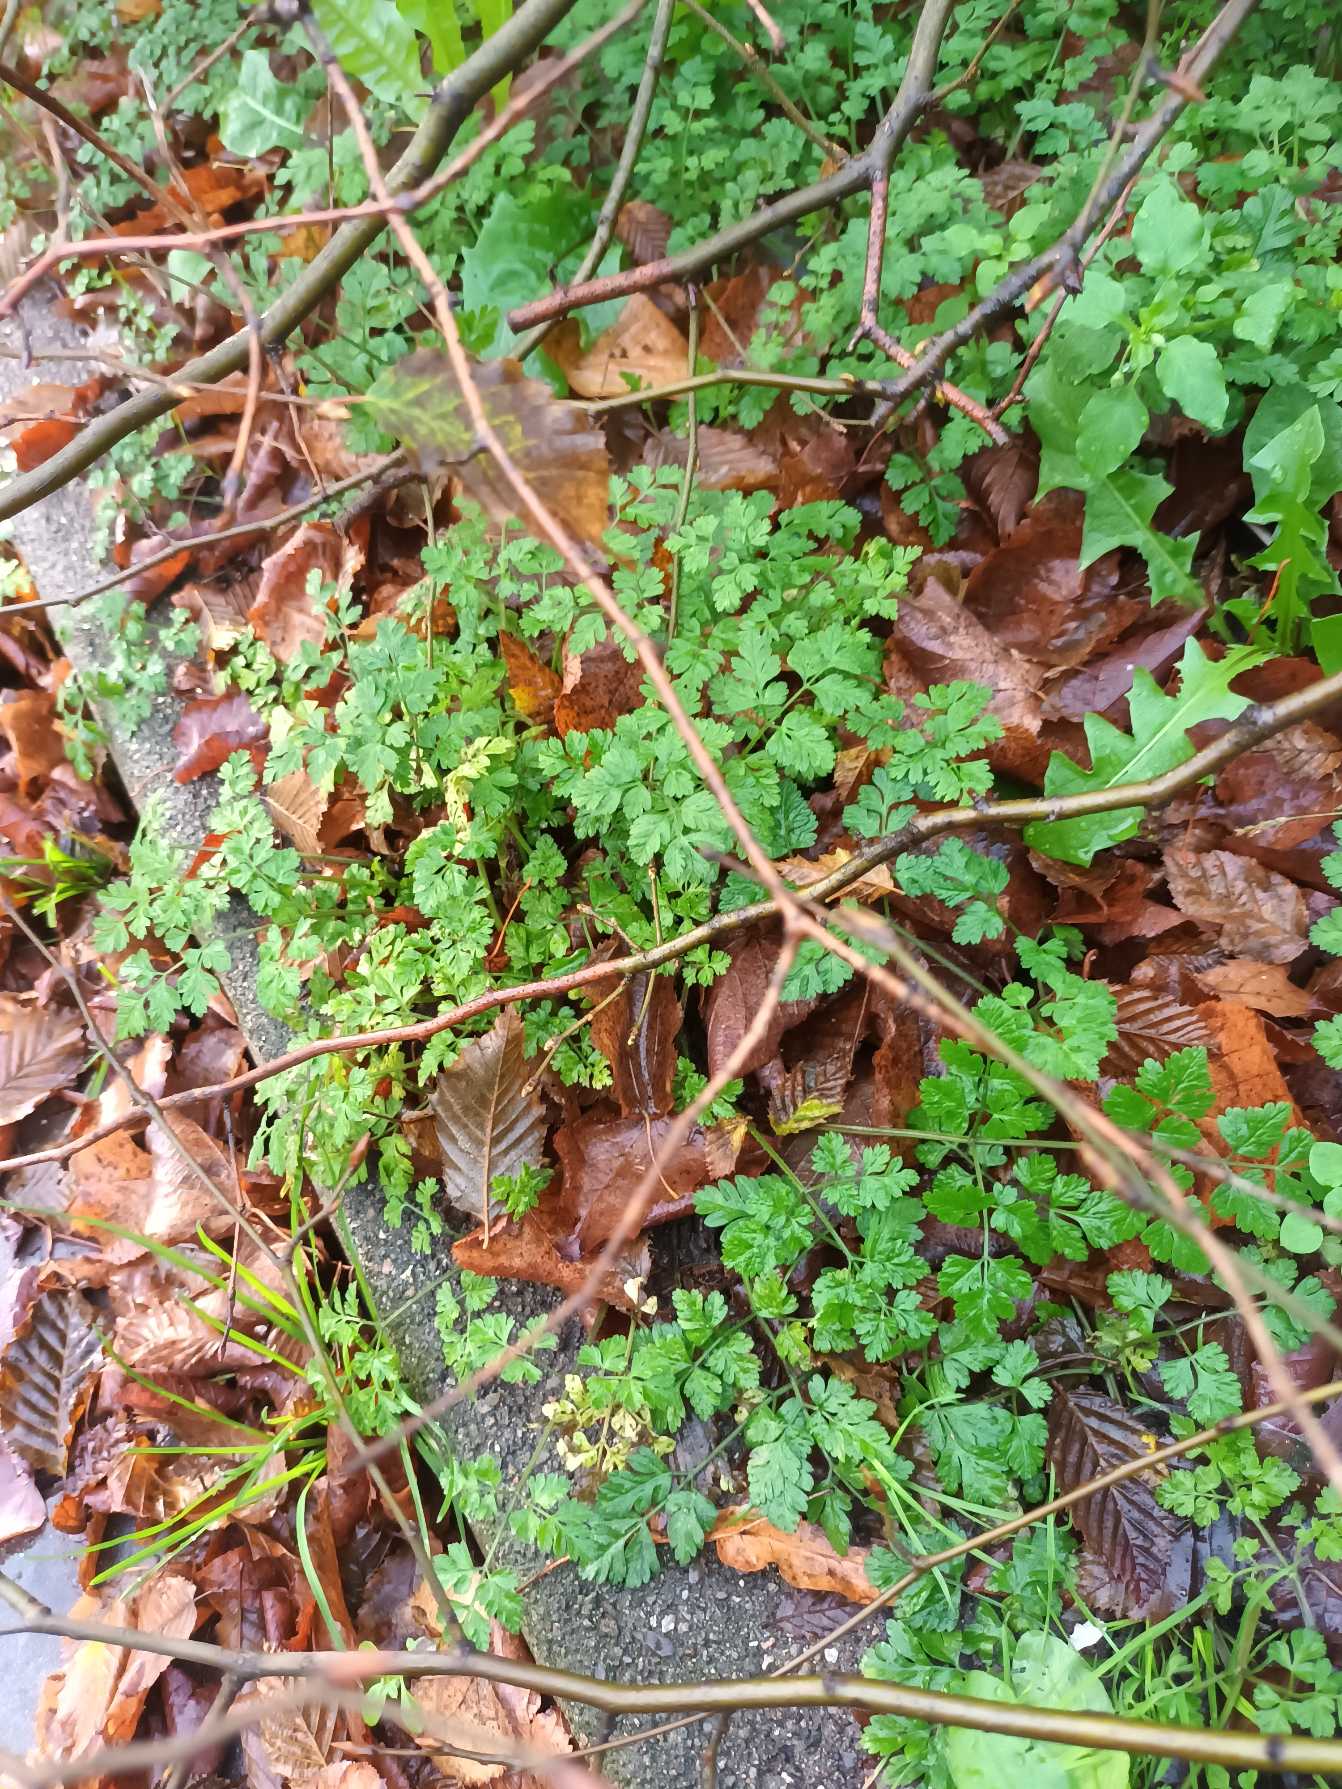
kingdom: Plantae
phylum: Tracheophyta
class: Magnoliopsida
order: Apiales
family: Apiaceae
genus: Chaerophyllum
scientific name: Chaerophyllum temulum
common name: Almindelig hulsvøb
